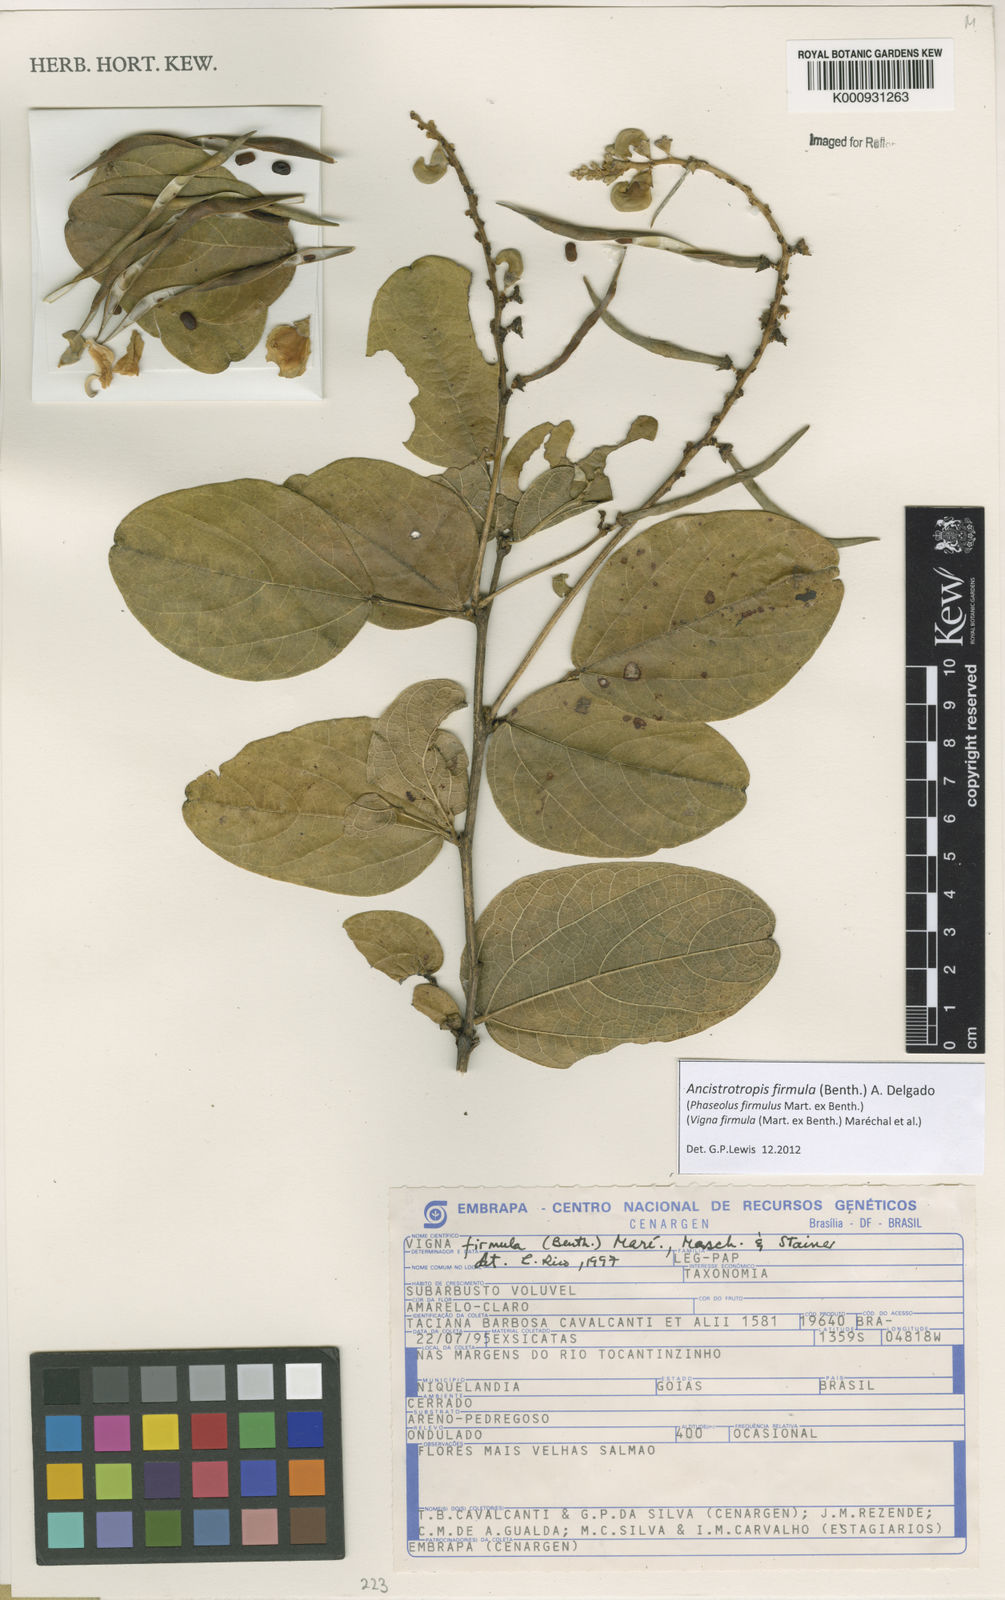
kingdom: Plantae
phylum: Tracheophyta
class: Magnoliopsida
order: Fabales
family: Fabaceae
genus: Ancistrotropis
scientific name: Ancistrotropis firmula
